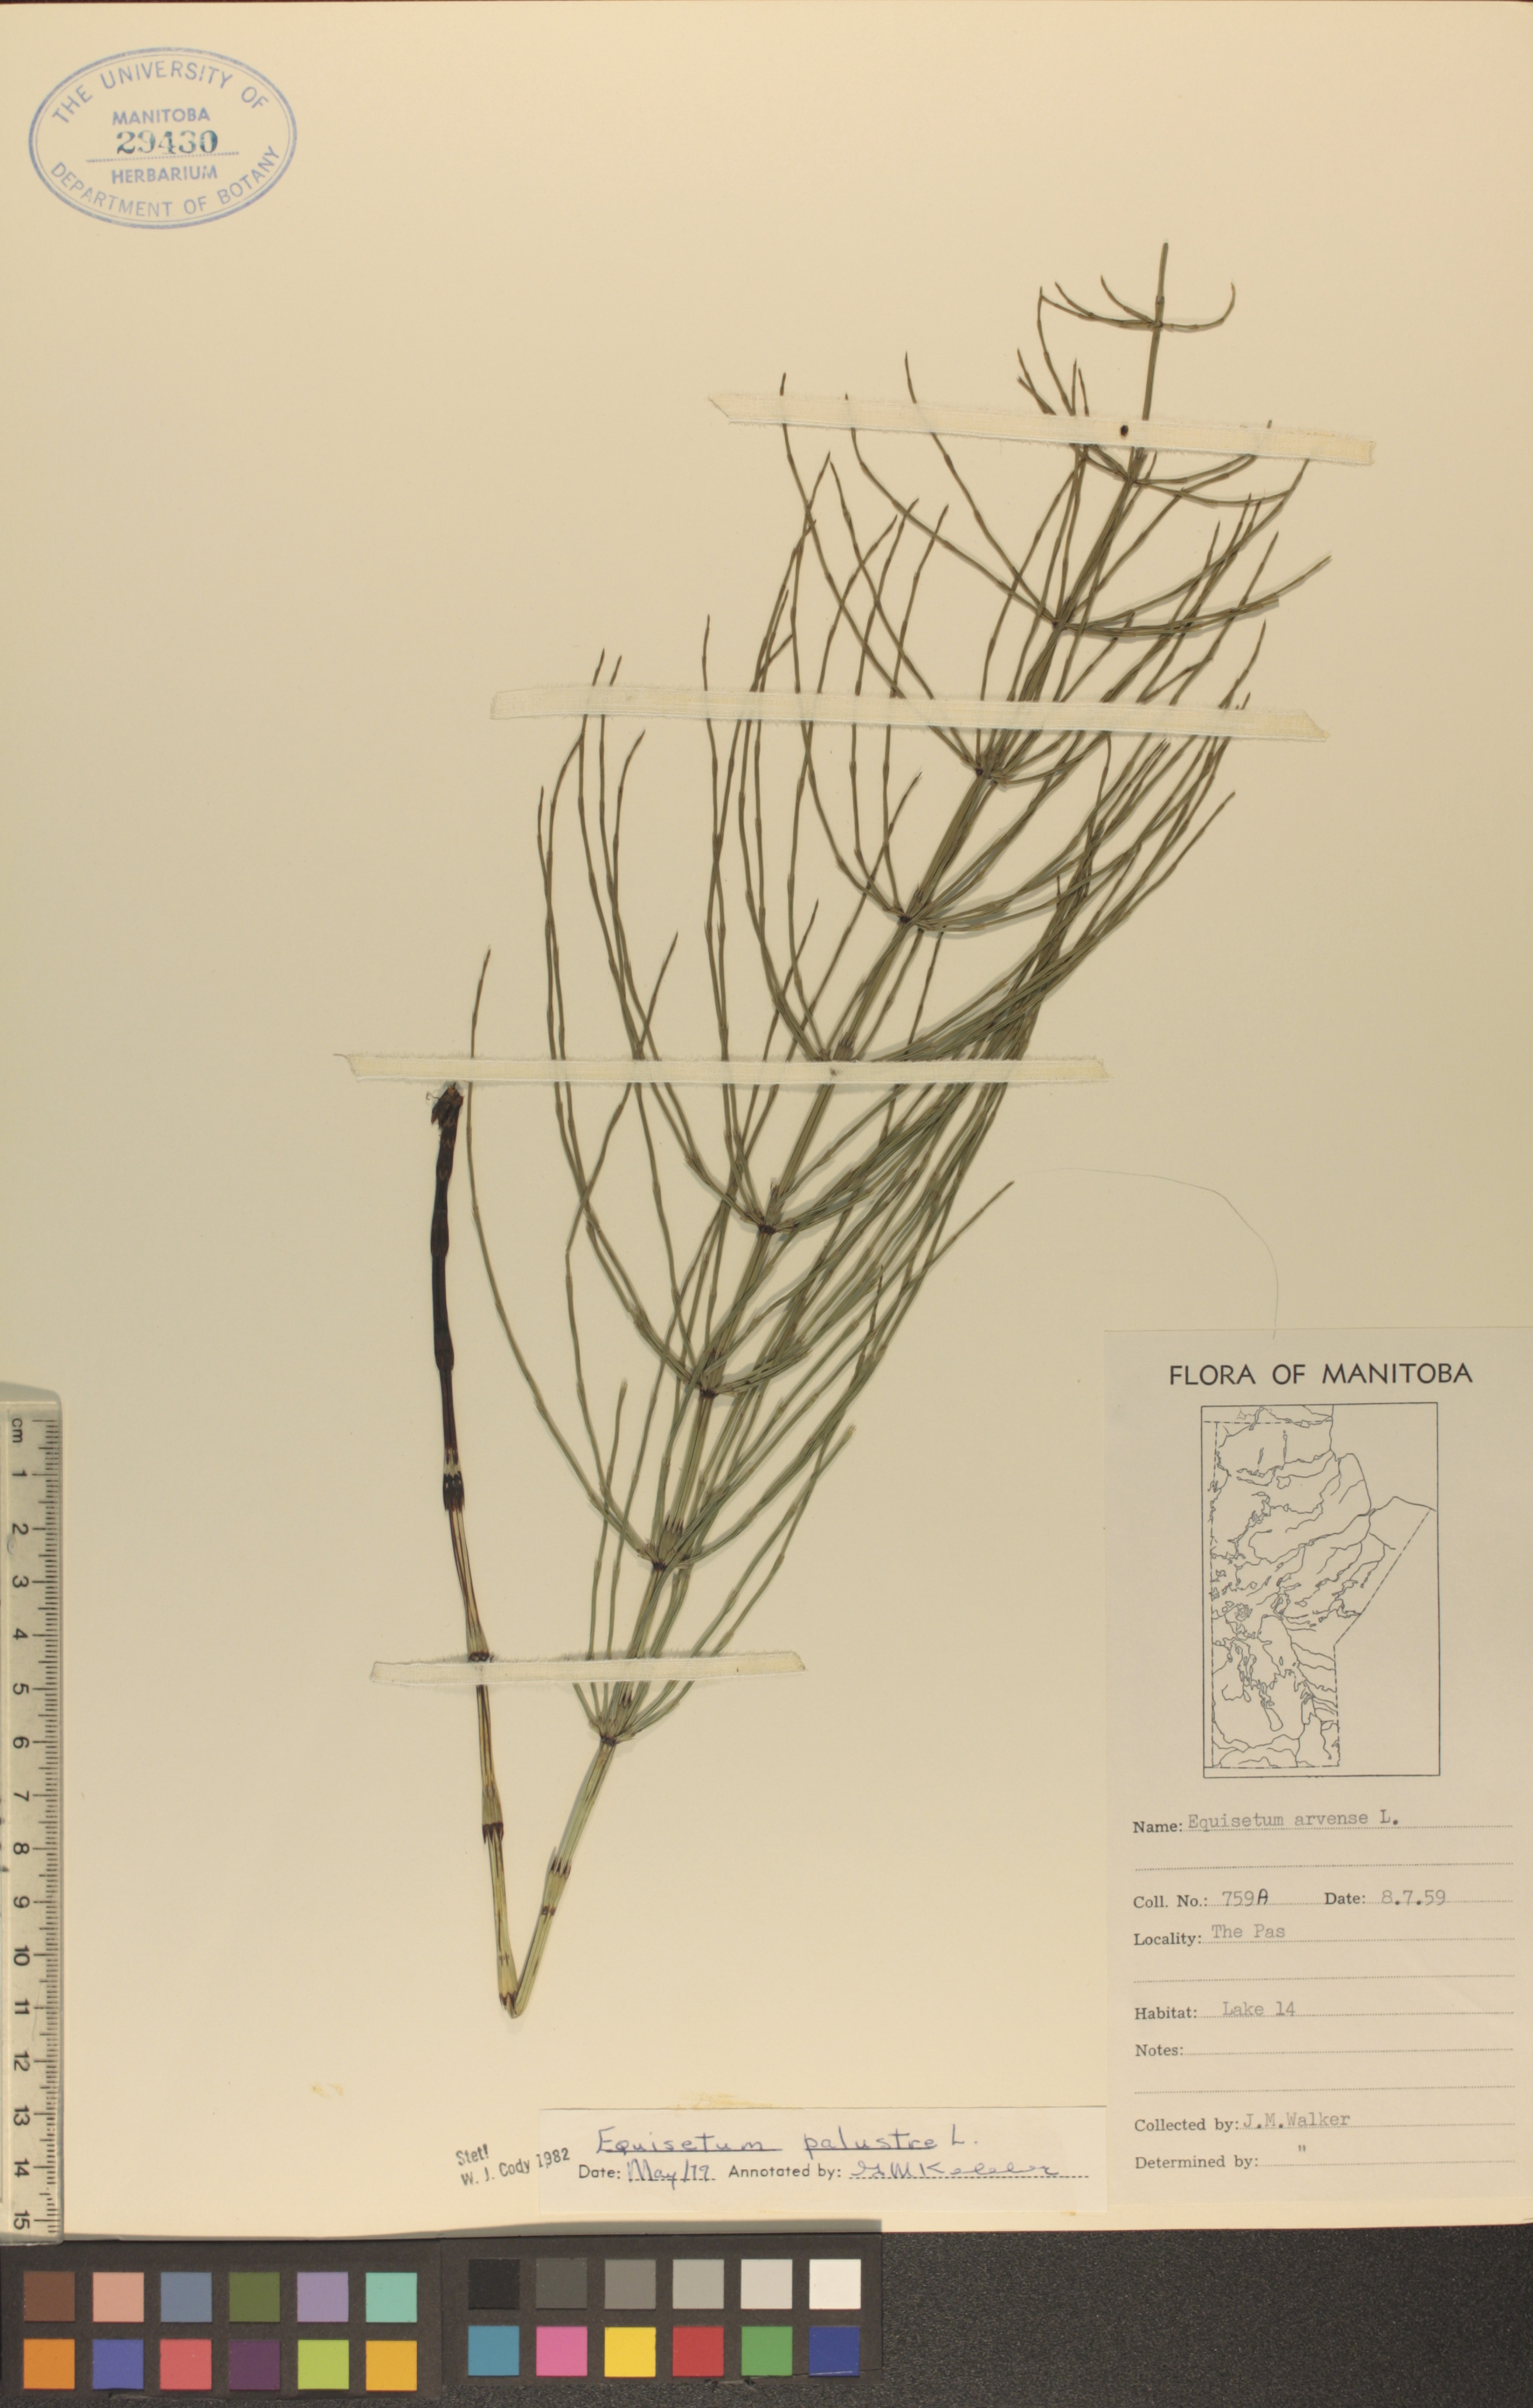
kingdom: Plantae
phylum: Tracheophyta
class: Polypodiopsida
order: Equisetales
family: Equisetaceae
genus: Equisetum
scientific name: Equisetum arvense
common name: Field horsetail
